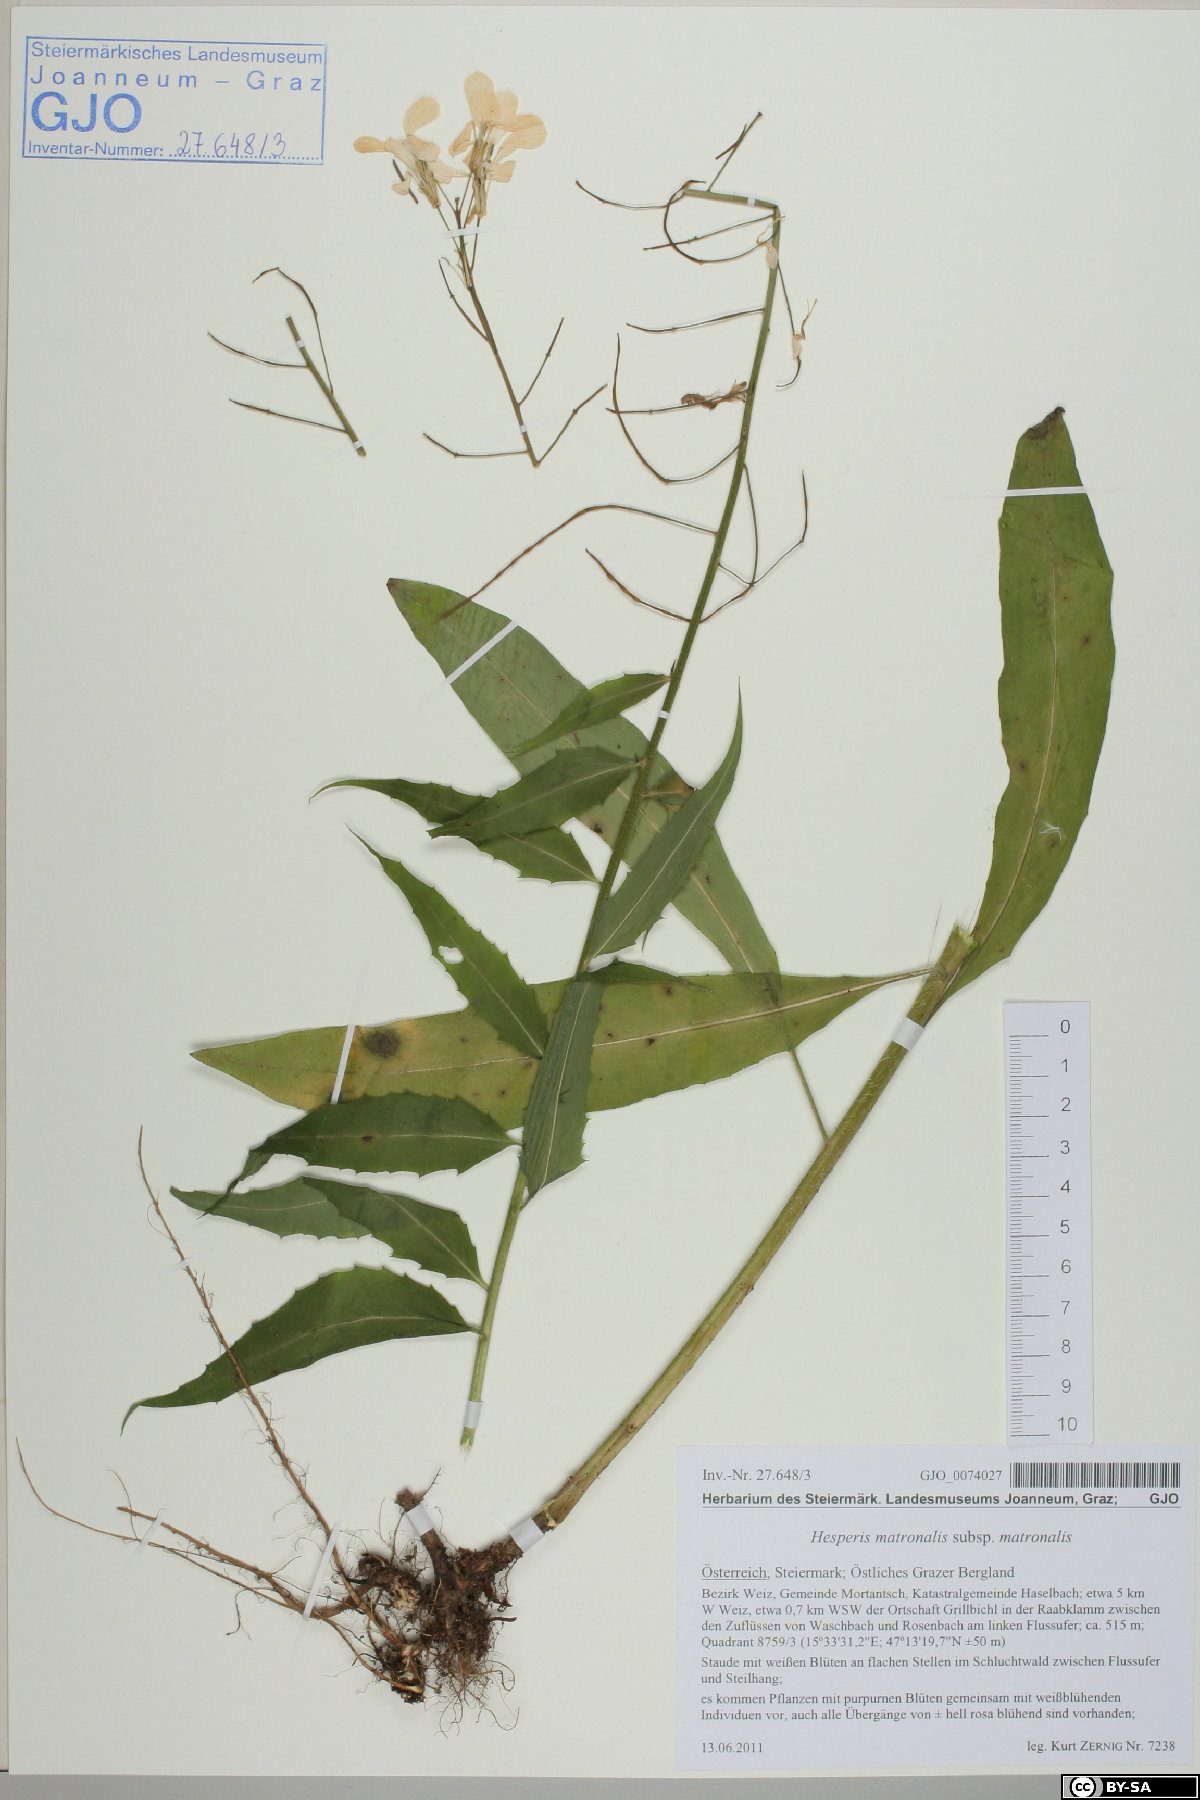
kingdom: Plantae
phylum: Tracheophyta
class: Magnoliopsida
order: Brassicales
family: Brassicaceae
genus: Hesperis
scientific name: Hesperis matronalis
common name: Dame's-violet
